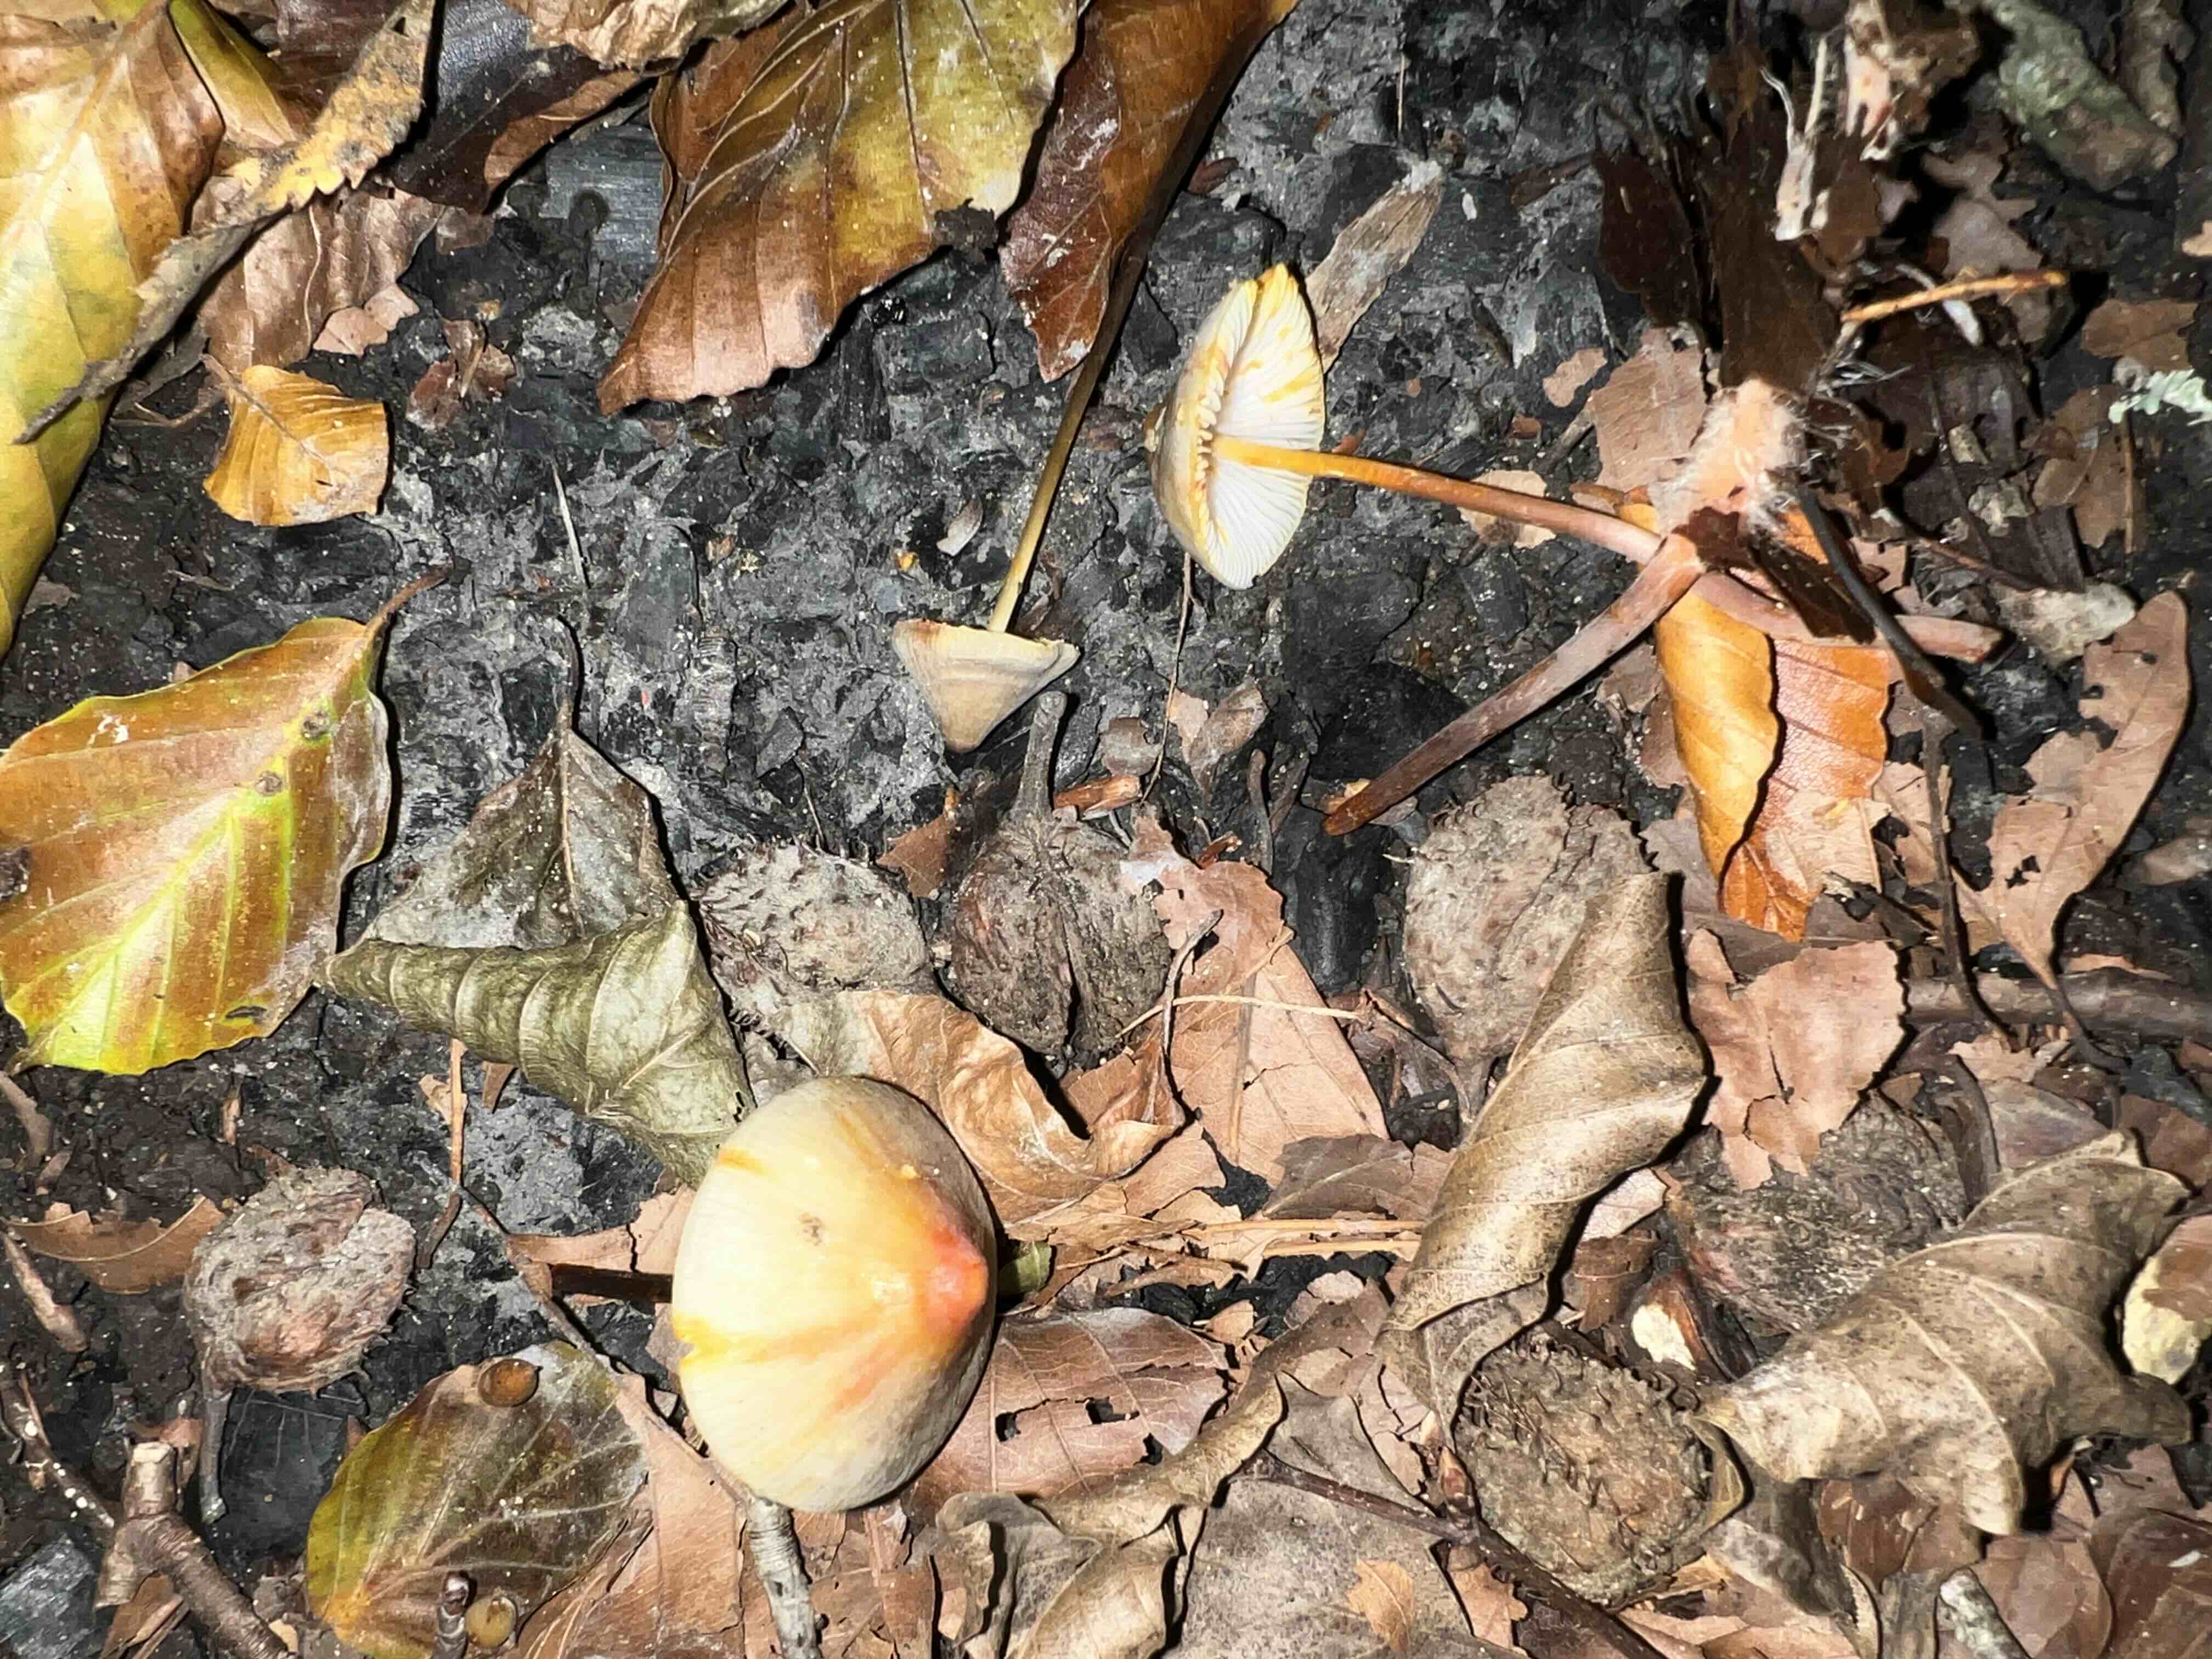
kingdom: Fungi
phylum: Basidiomycota
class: Agaricomycetes
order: Agaricales
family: Mycenaceae
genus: Mycena
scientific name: Mycena crocata
